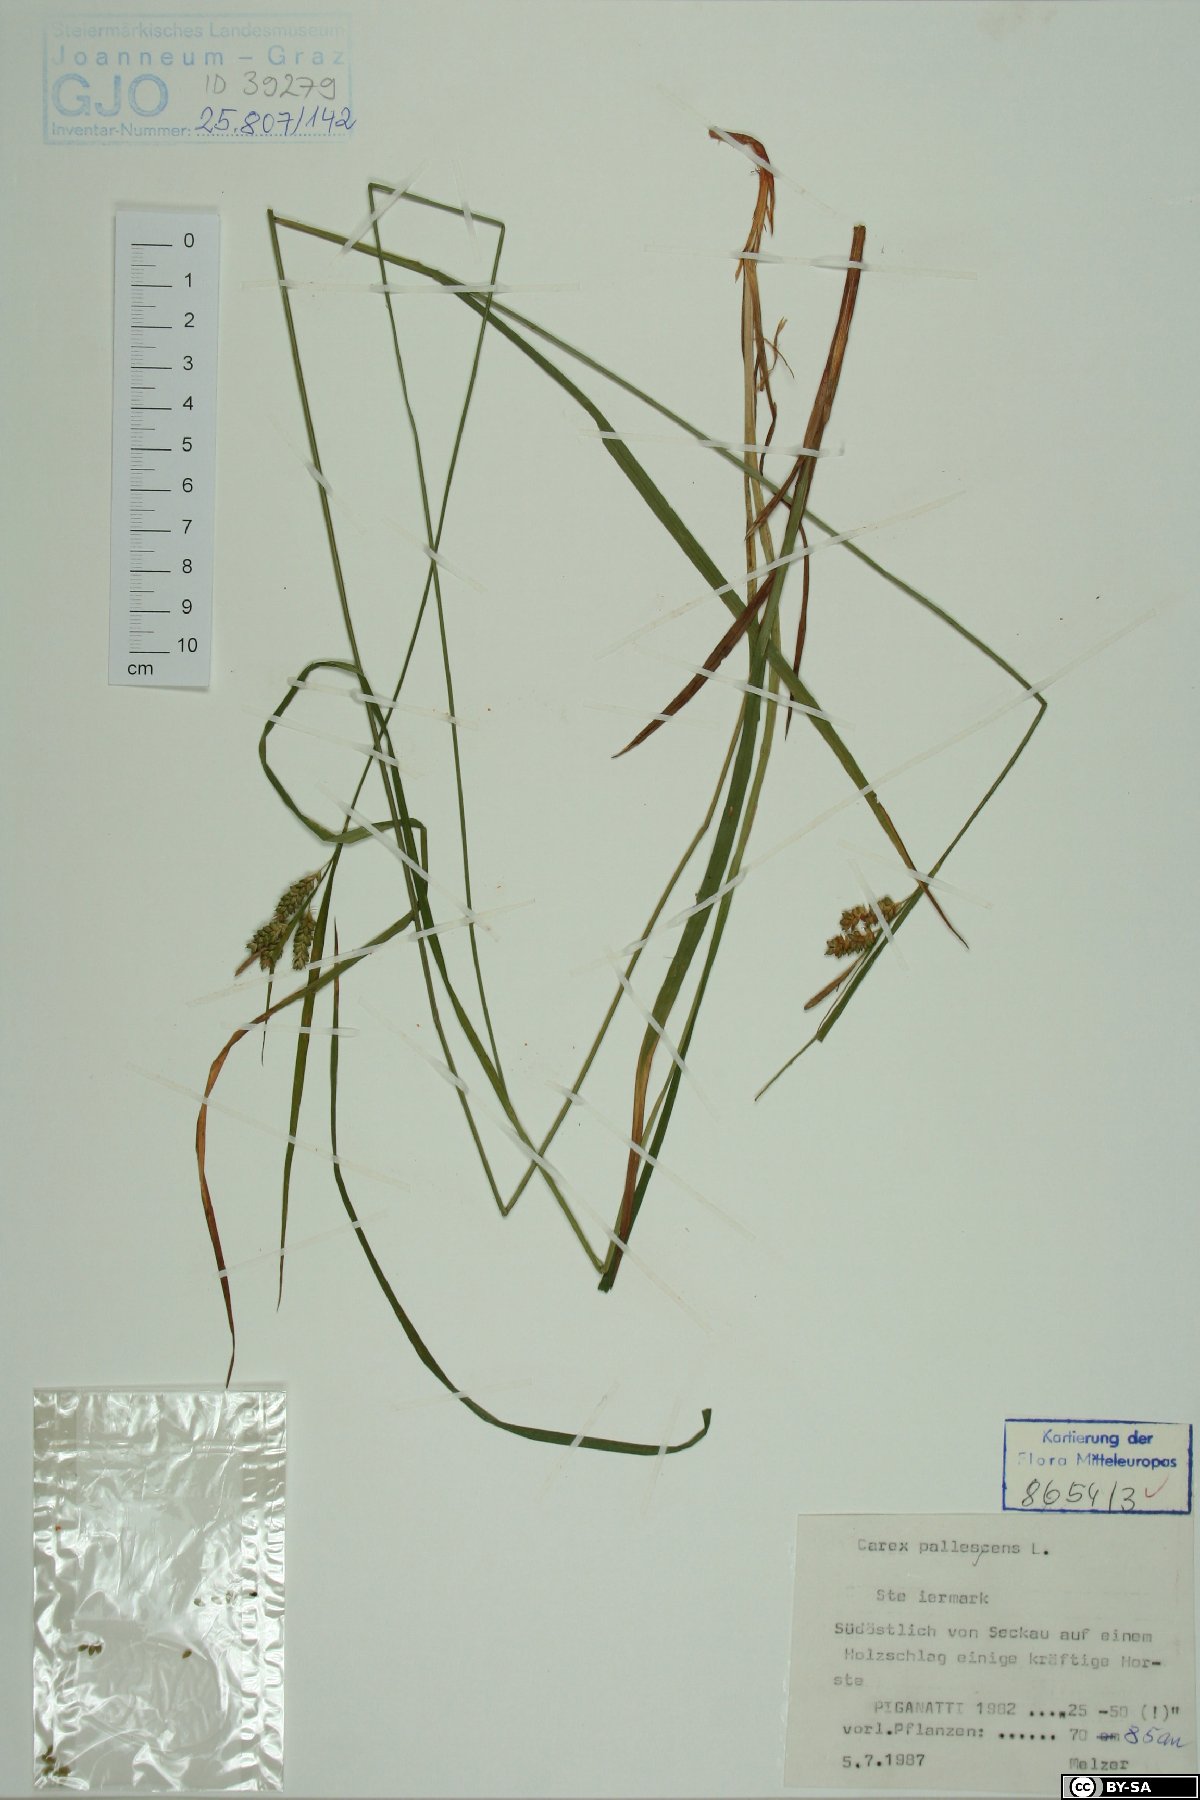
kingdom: Plantae
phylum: Tracheophyta
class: Liliopsida
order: Poales
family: Cyperaceae
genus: Carex
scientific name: Carex pallescens
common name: Pale sedge
